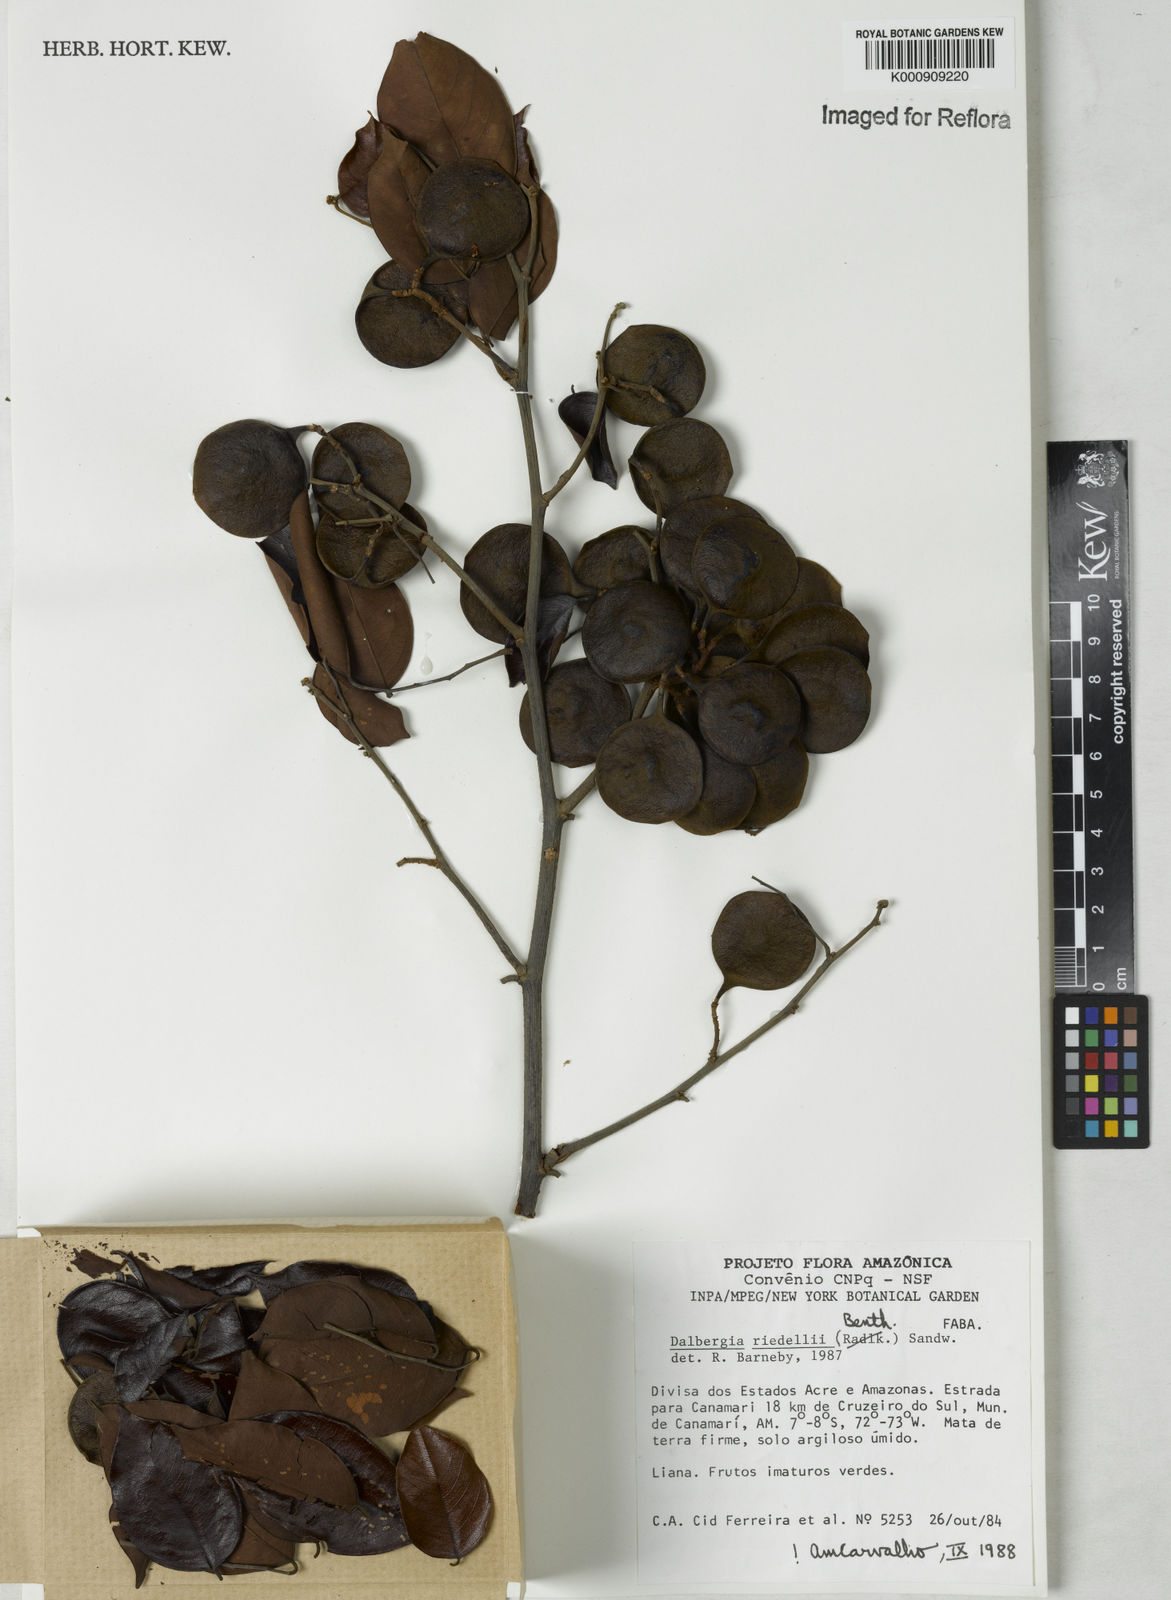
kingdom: Plantae
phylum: Tracheophyta
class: Magnoliopsida
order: Fabales
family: Fabaceae
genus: Dalbergia
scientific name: Dalbergia riedelii
